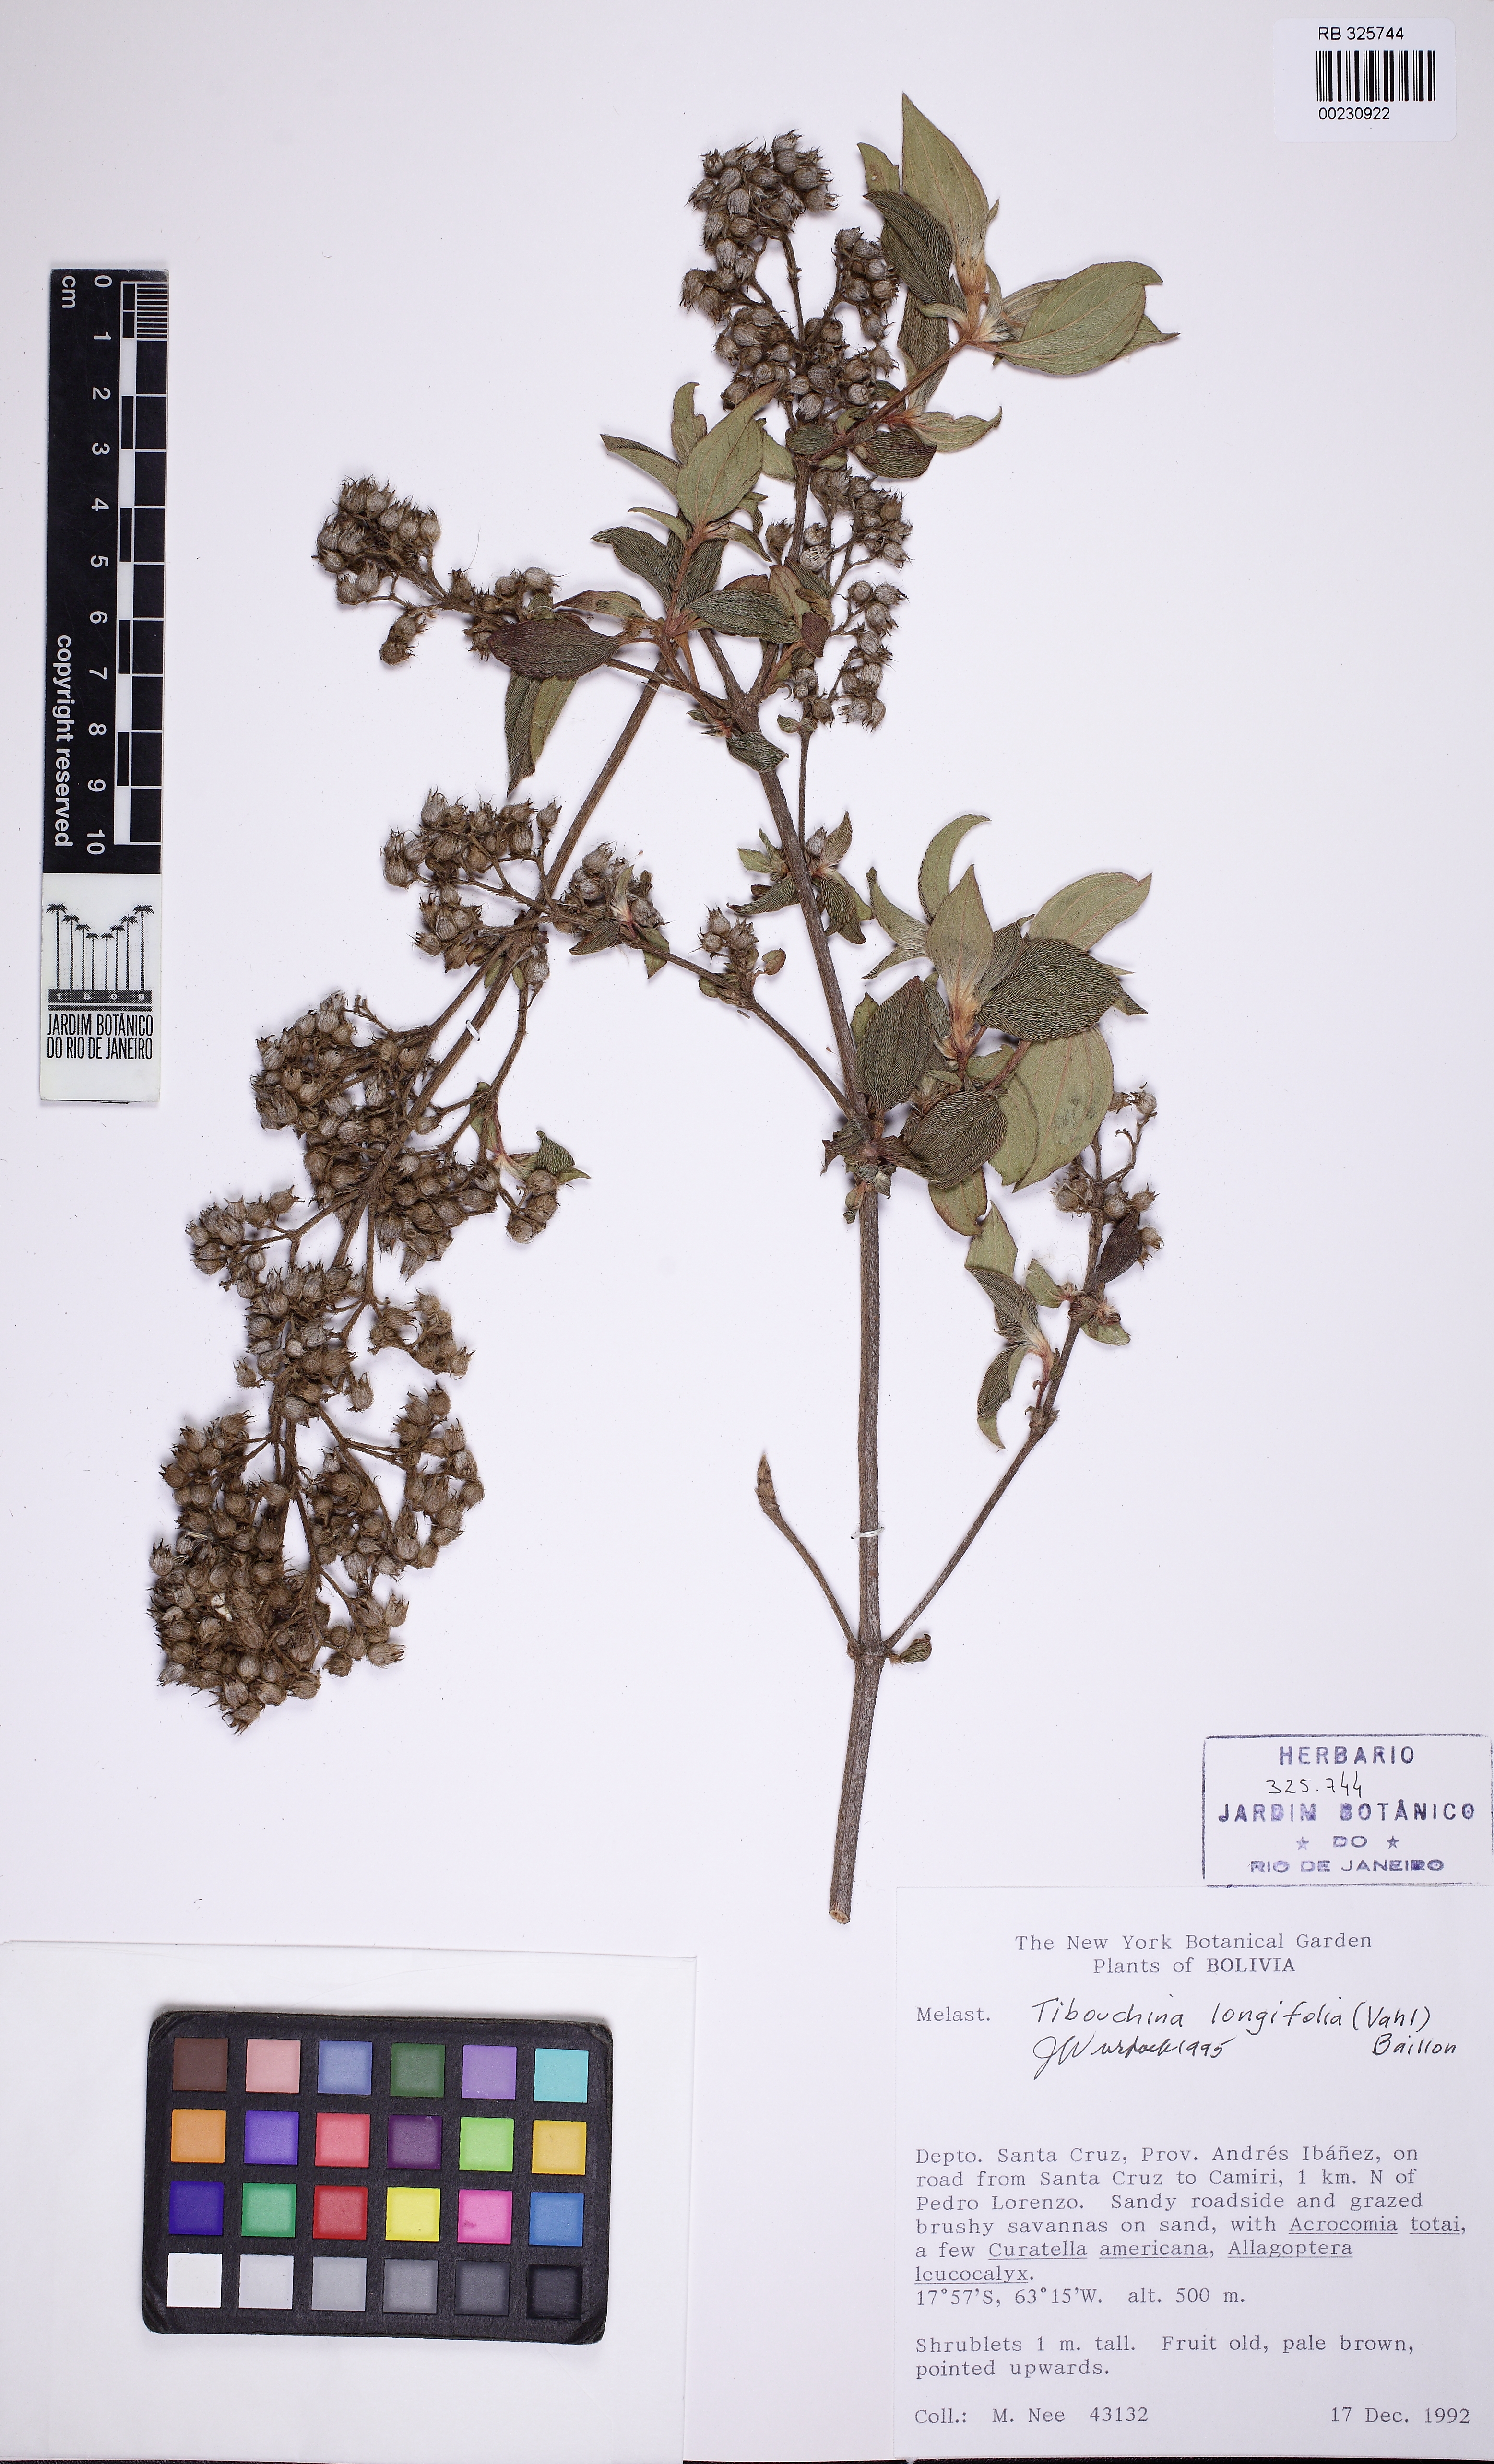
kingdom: Plantae
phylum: Tracheophyta
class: Magnoliopsida
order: Myrtales
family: Melastomataceae
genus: Pleroma
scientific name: Pleroma aegopogon
